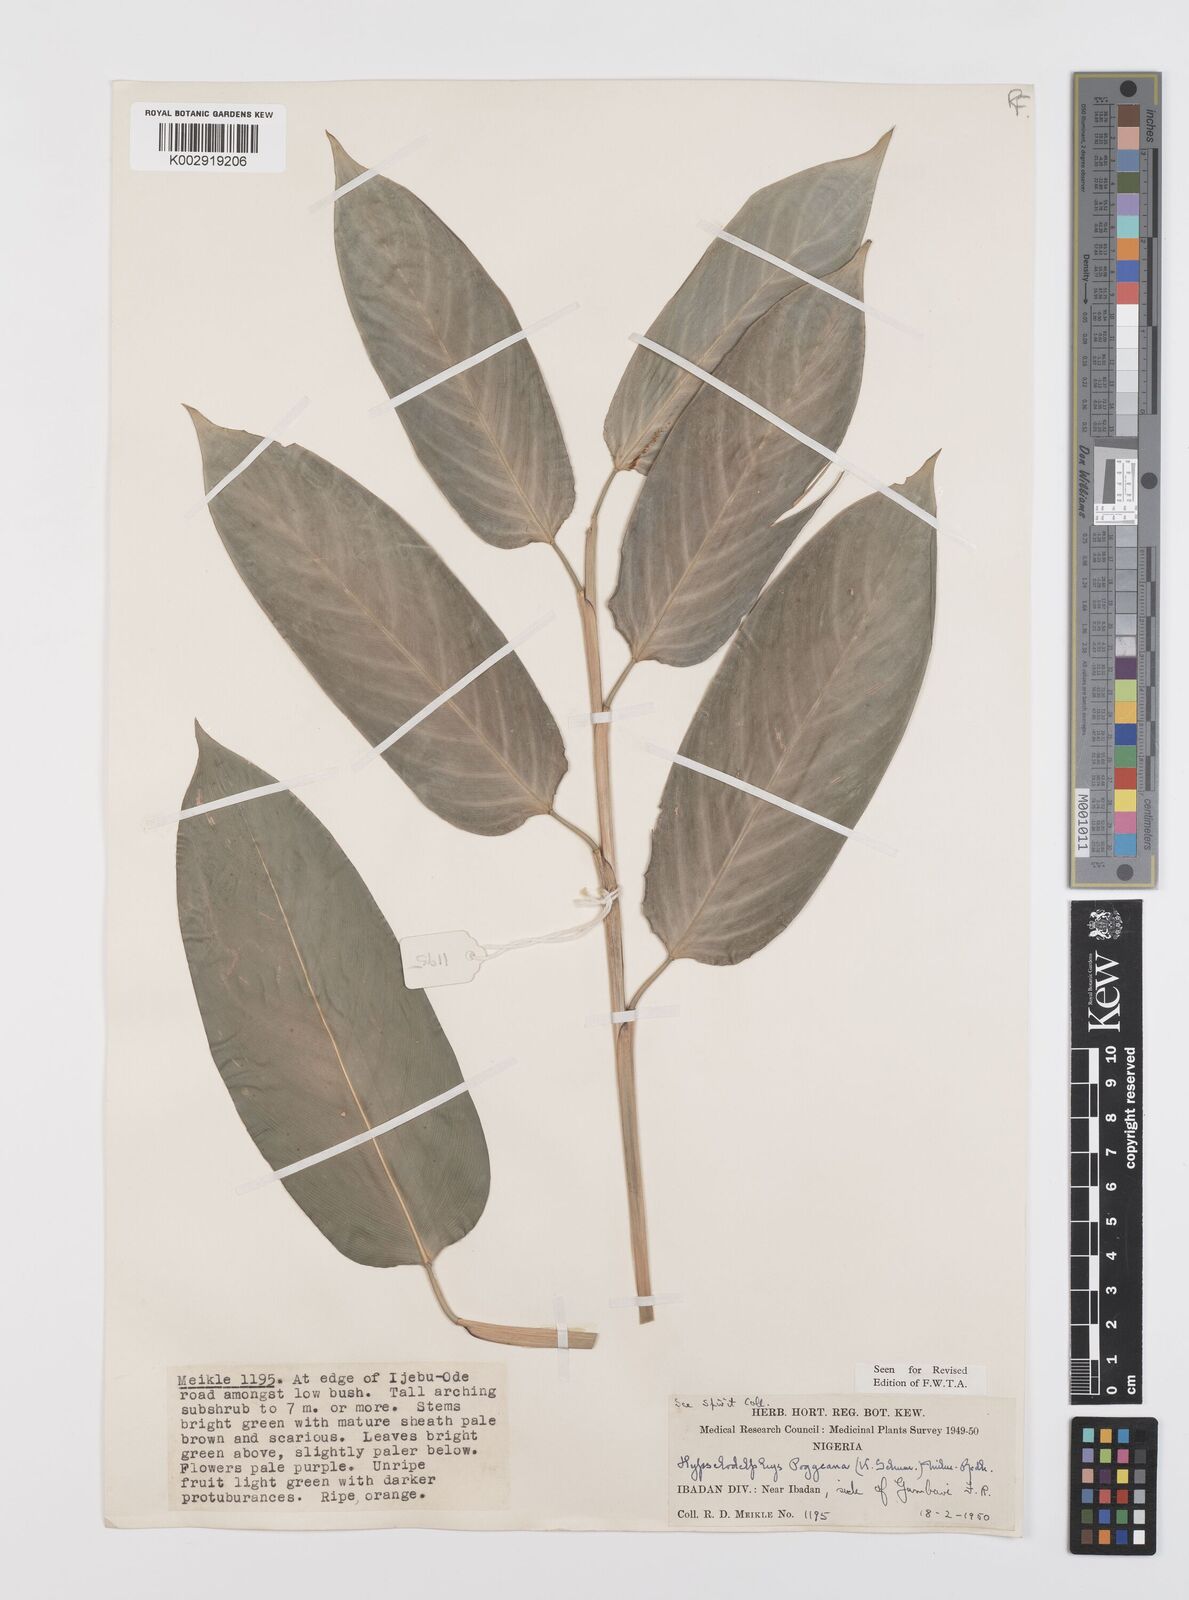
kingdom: Plantae
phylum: Tracheophyta
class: Liliopsida
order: Zingiberales
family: Marantaceae
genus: Hypselodelphys
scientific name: Hypselodelphys poggeana
